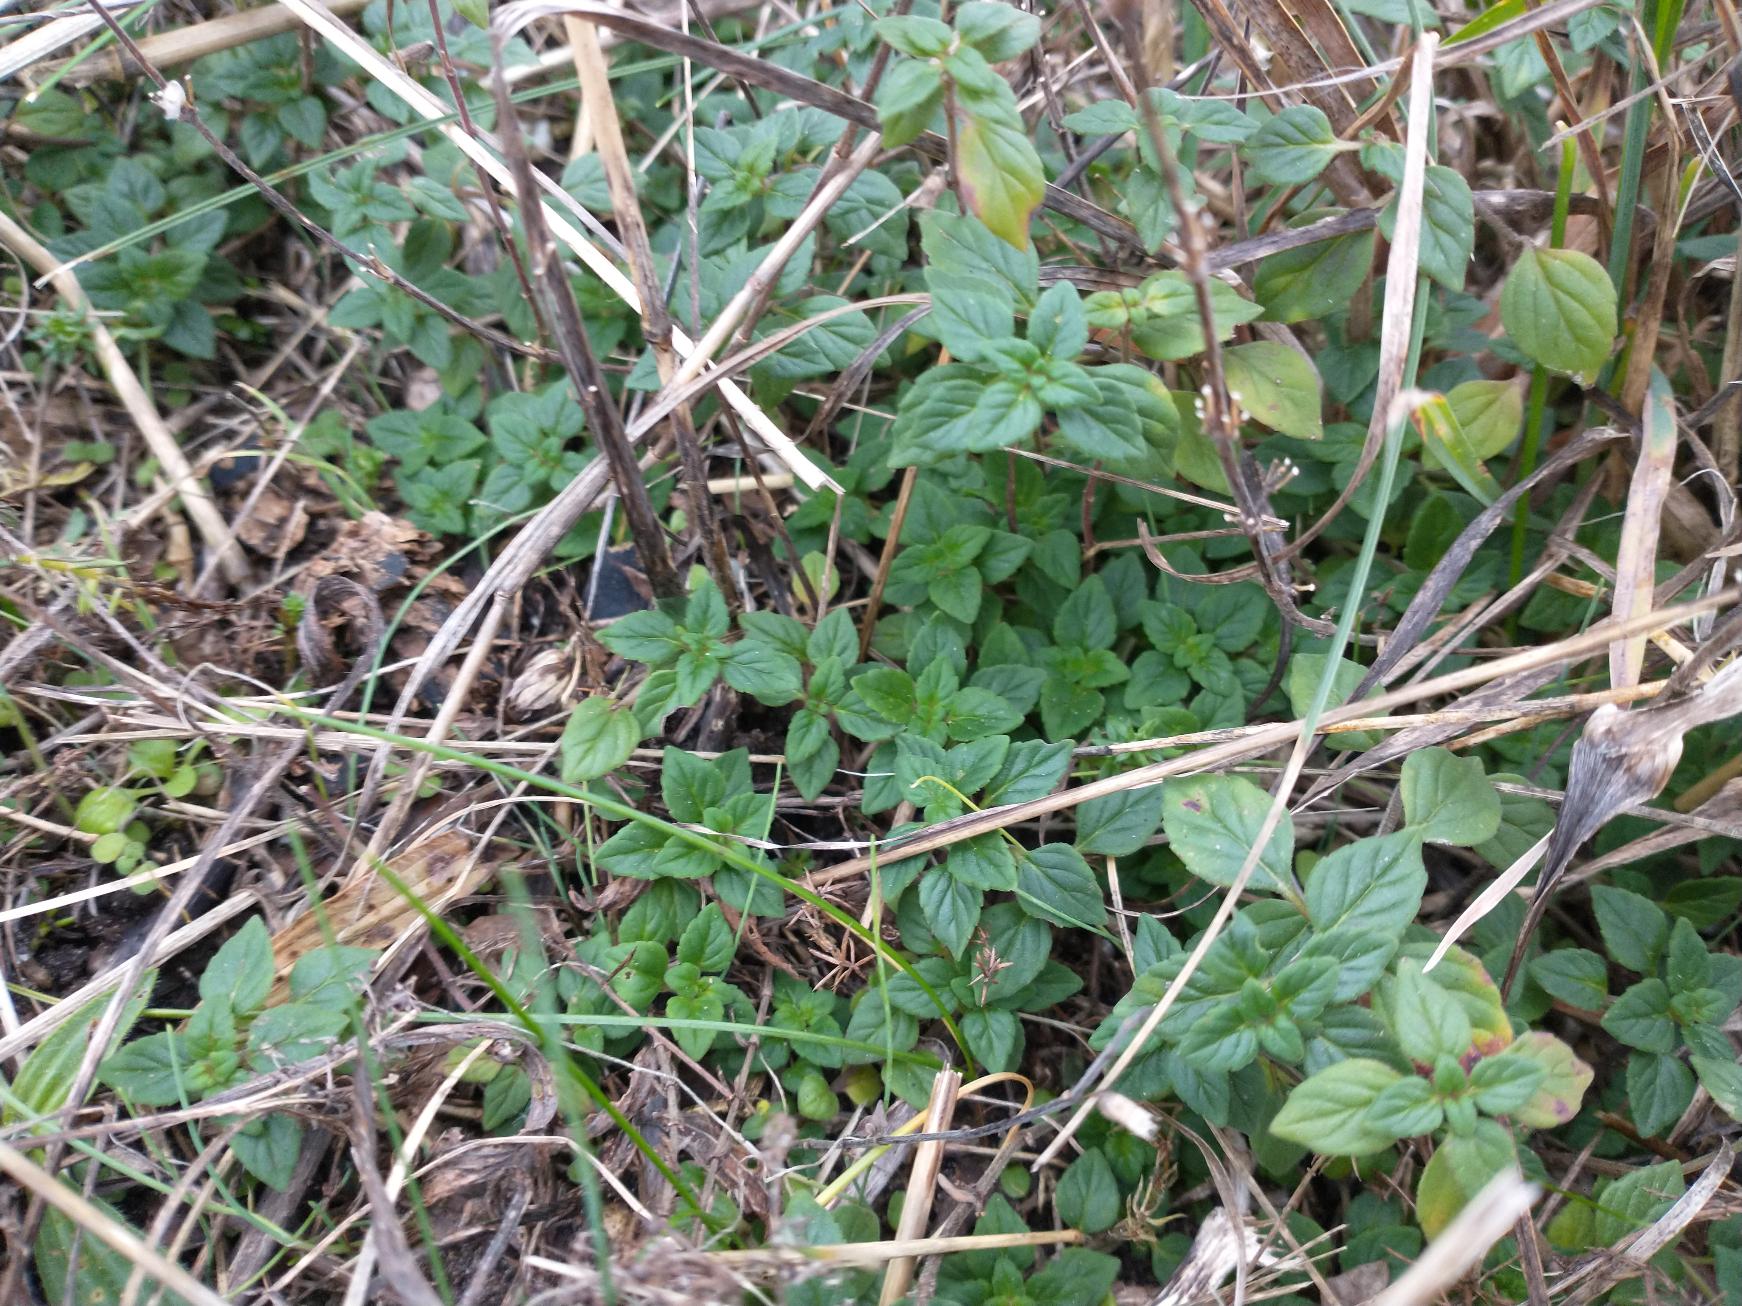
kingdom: Plantae
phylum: Tracheophyta
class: Magnoliopsida
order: Lamiales
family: Lamiaceae
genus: Clinopodium
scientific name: Clinopodium acinos
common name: Voldtimian
